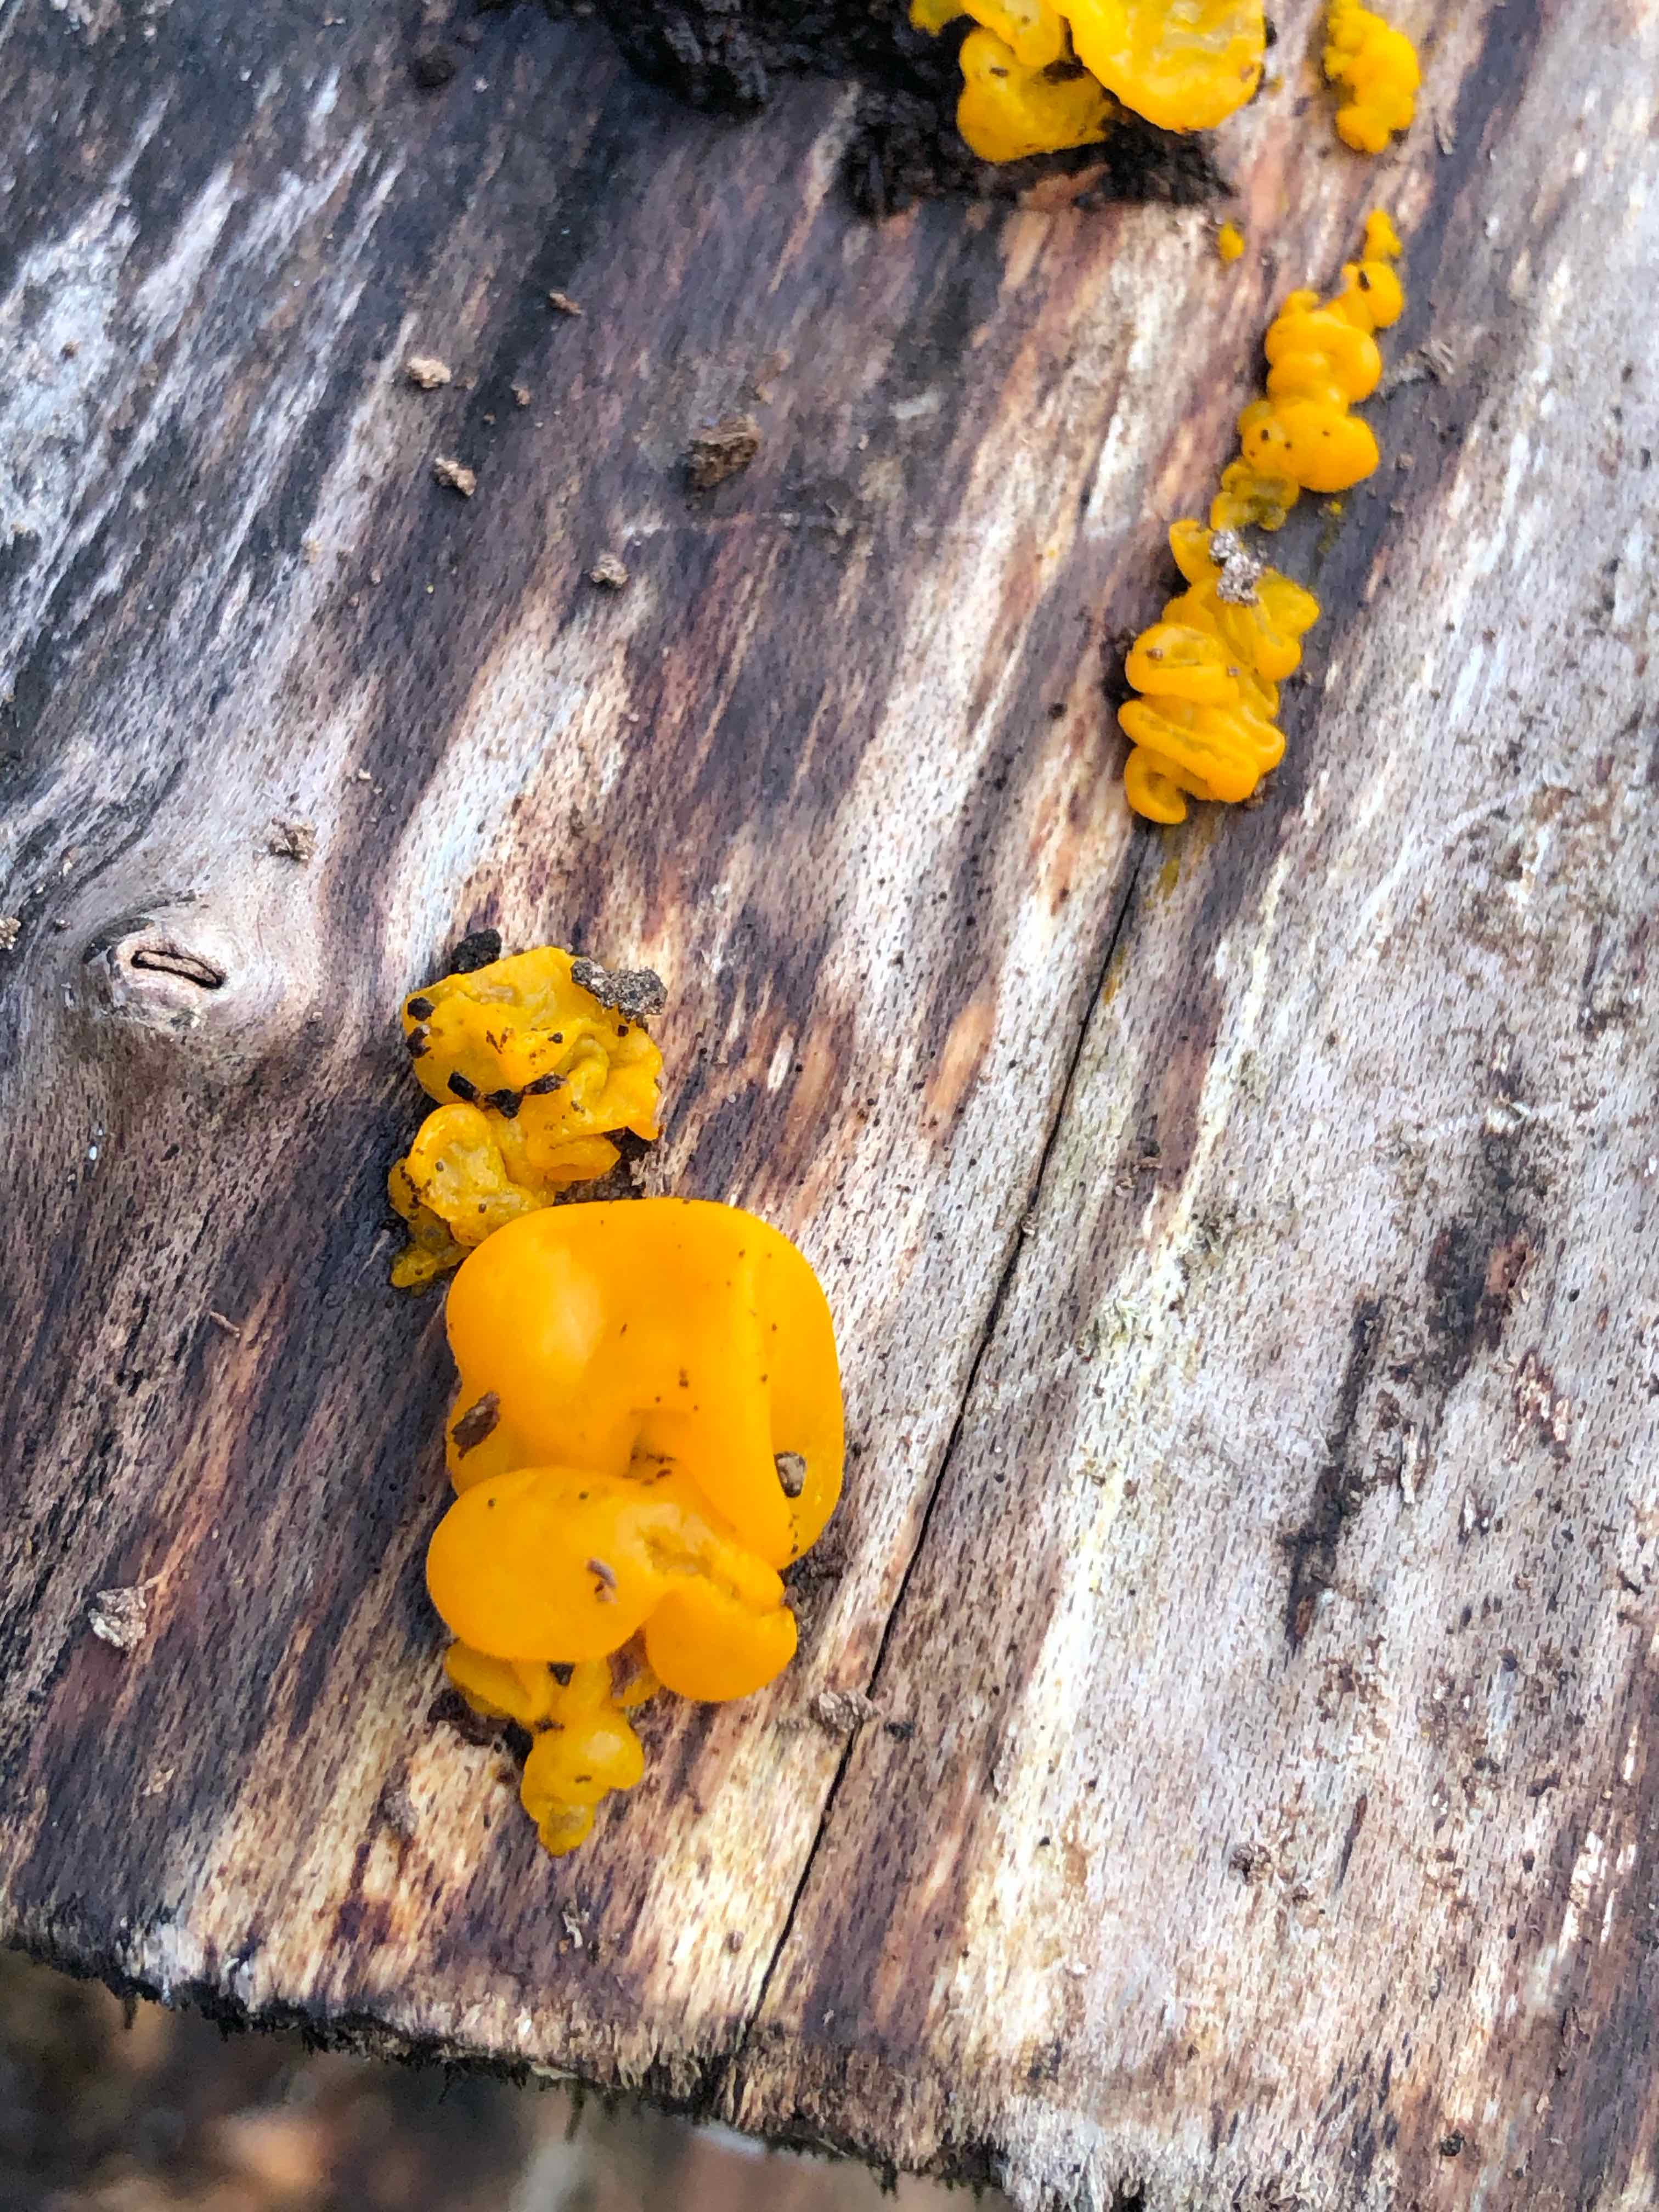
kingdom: Fungi
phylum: Basidiomycota
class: Tremellomycetes
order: Tremellales
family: Tremellaceae
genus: Tremella
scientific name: Tremella mesenterica
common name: gul bævresvamp
